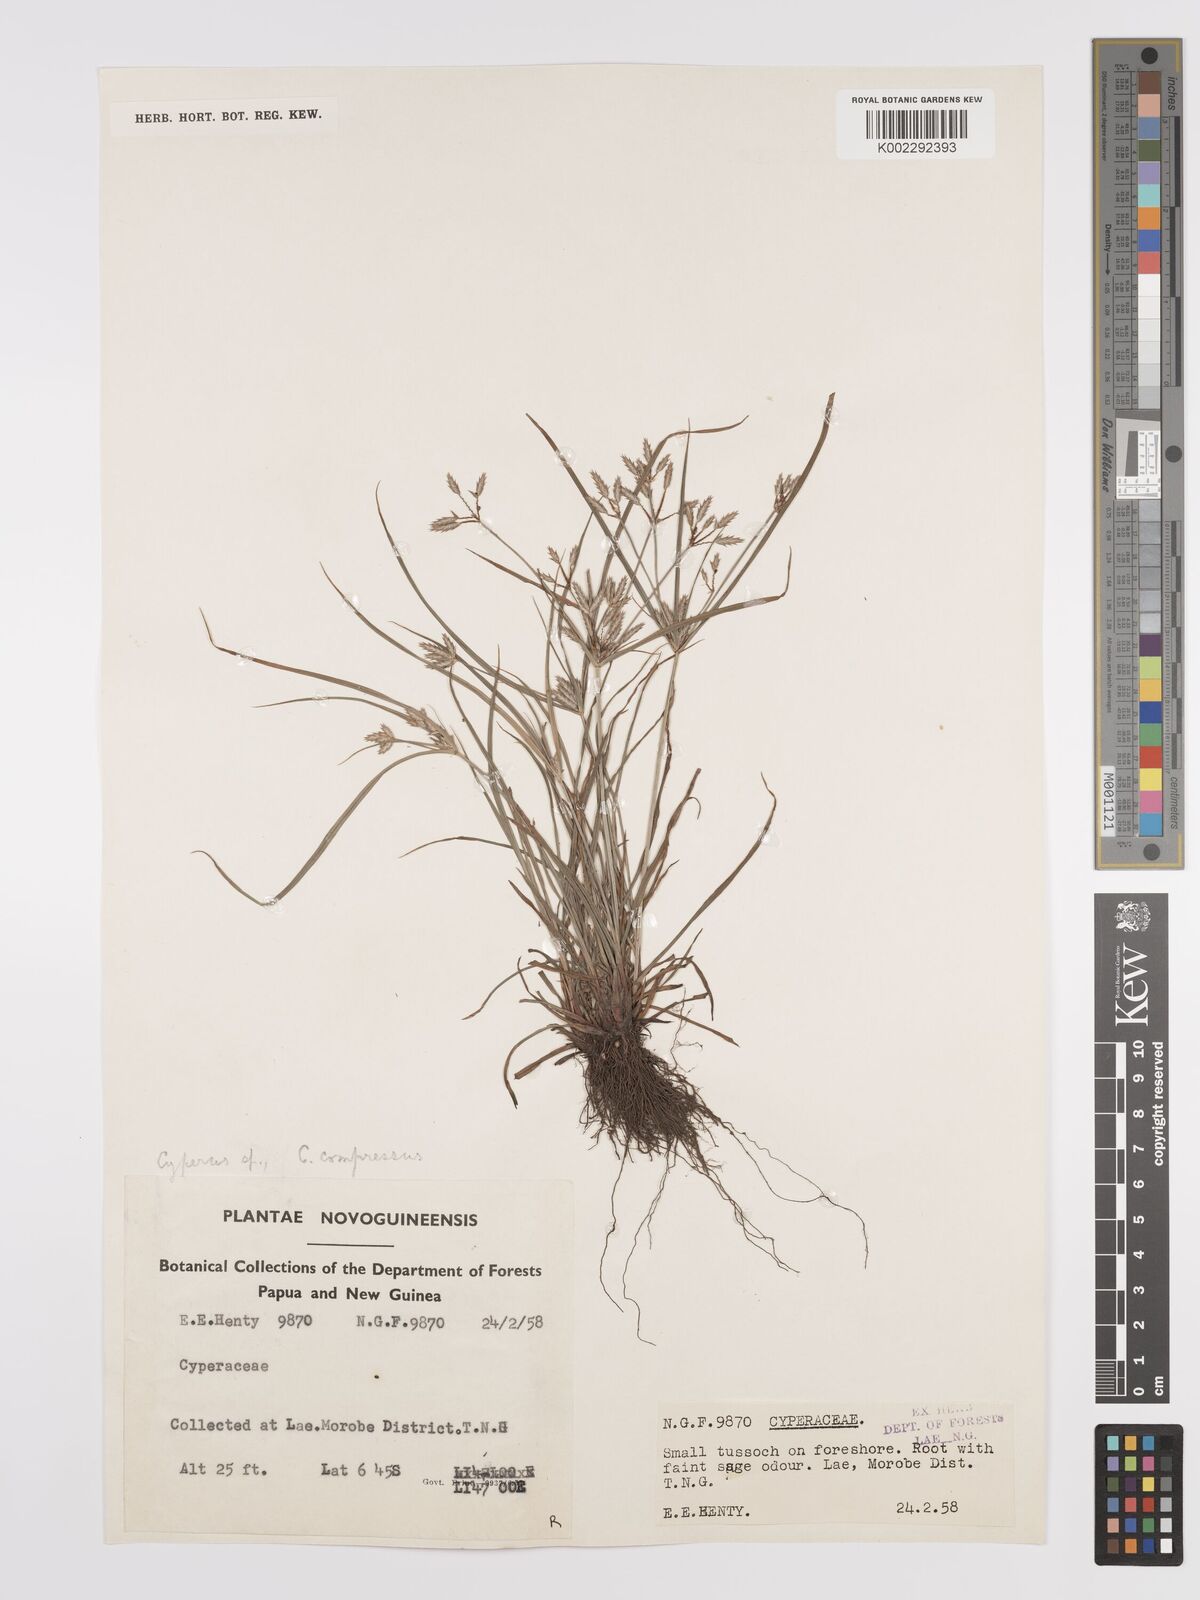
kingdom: Plantae
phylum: Tracheophyta
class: Liliopsida
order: Poales
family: Cyperaceae
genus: Cyperus
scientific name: Cyperus compressus
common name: Poorland flatsedge
